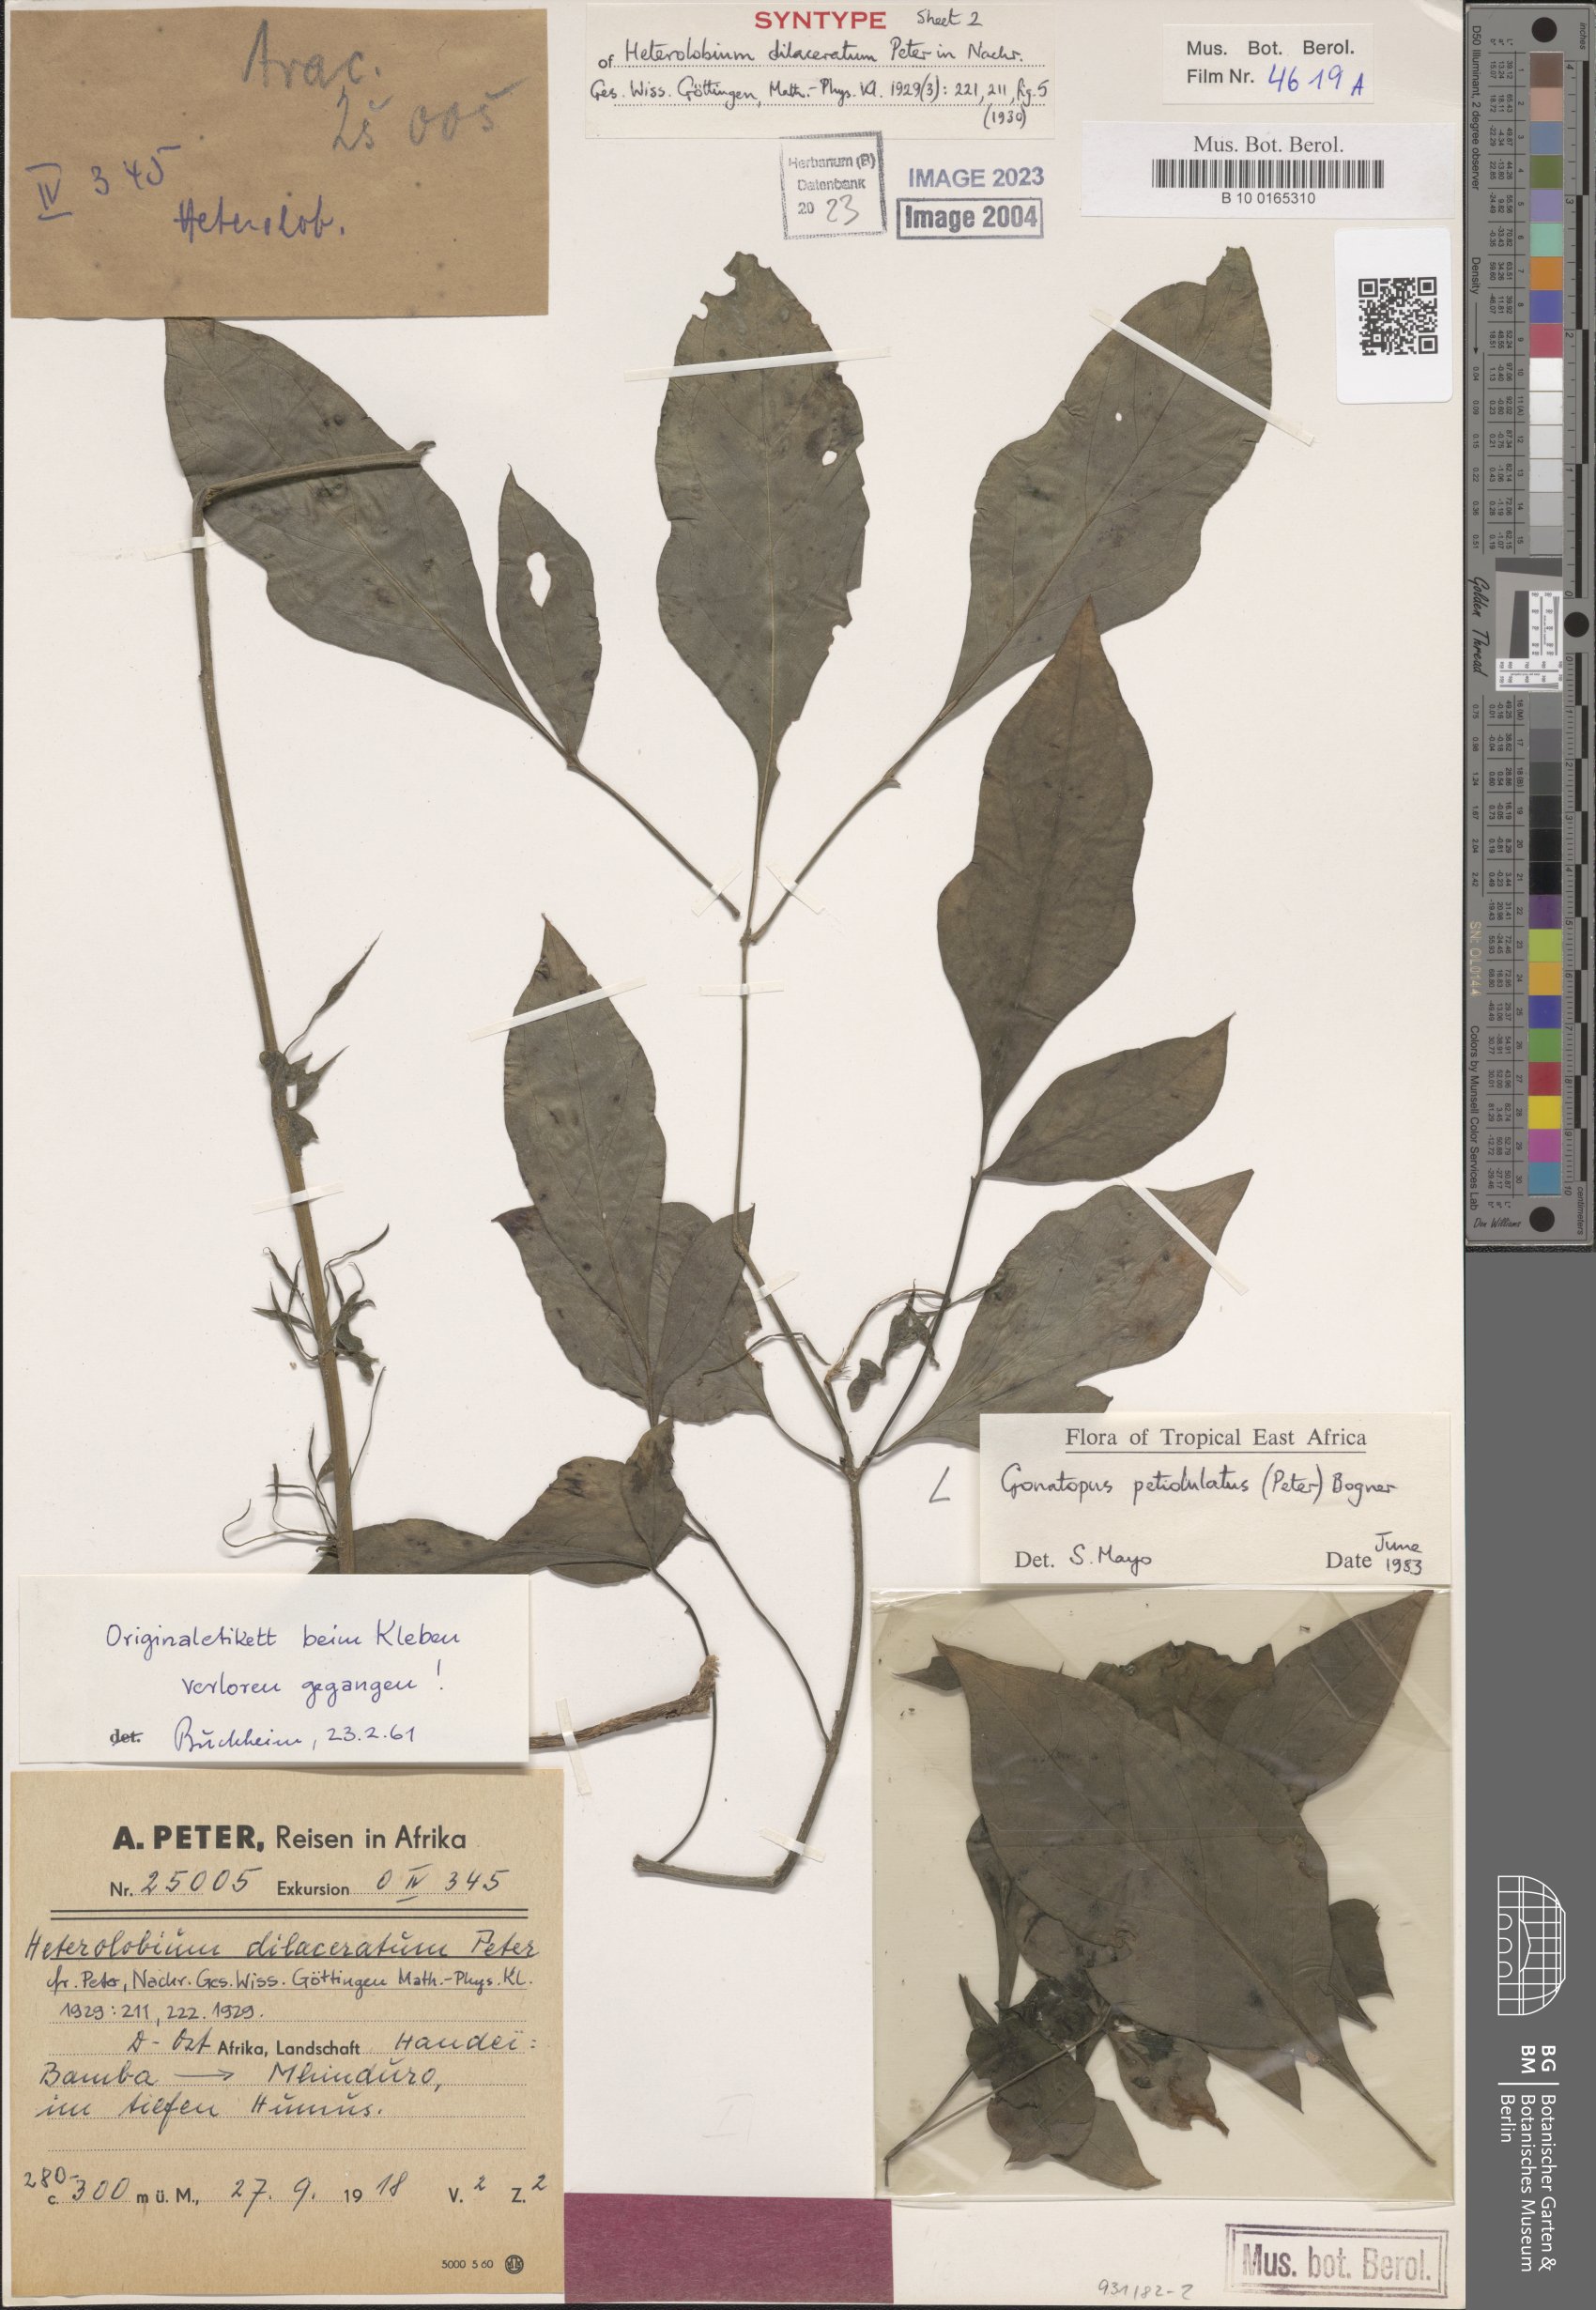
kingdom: Plantae
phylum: Tracheophyta
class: Liliopsida
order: Alismatales
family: Araceae
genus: Gonatopus
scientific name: Gonatopus petiolulatus
